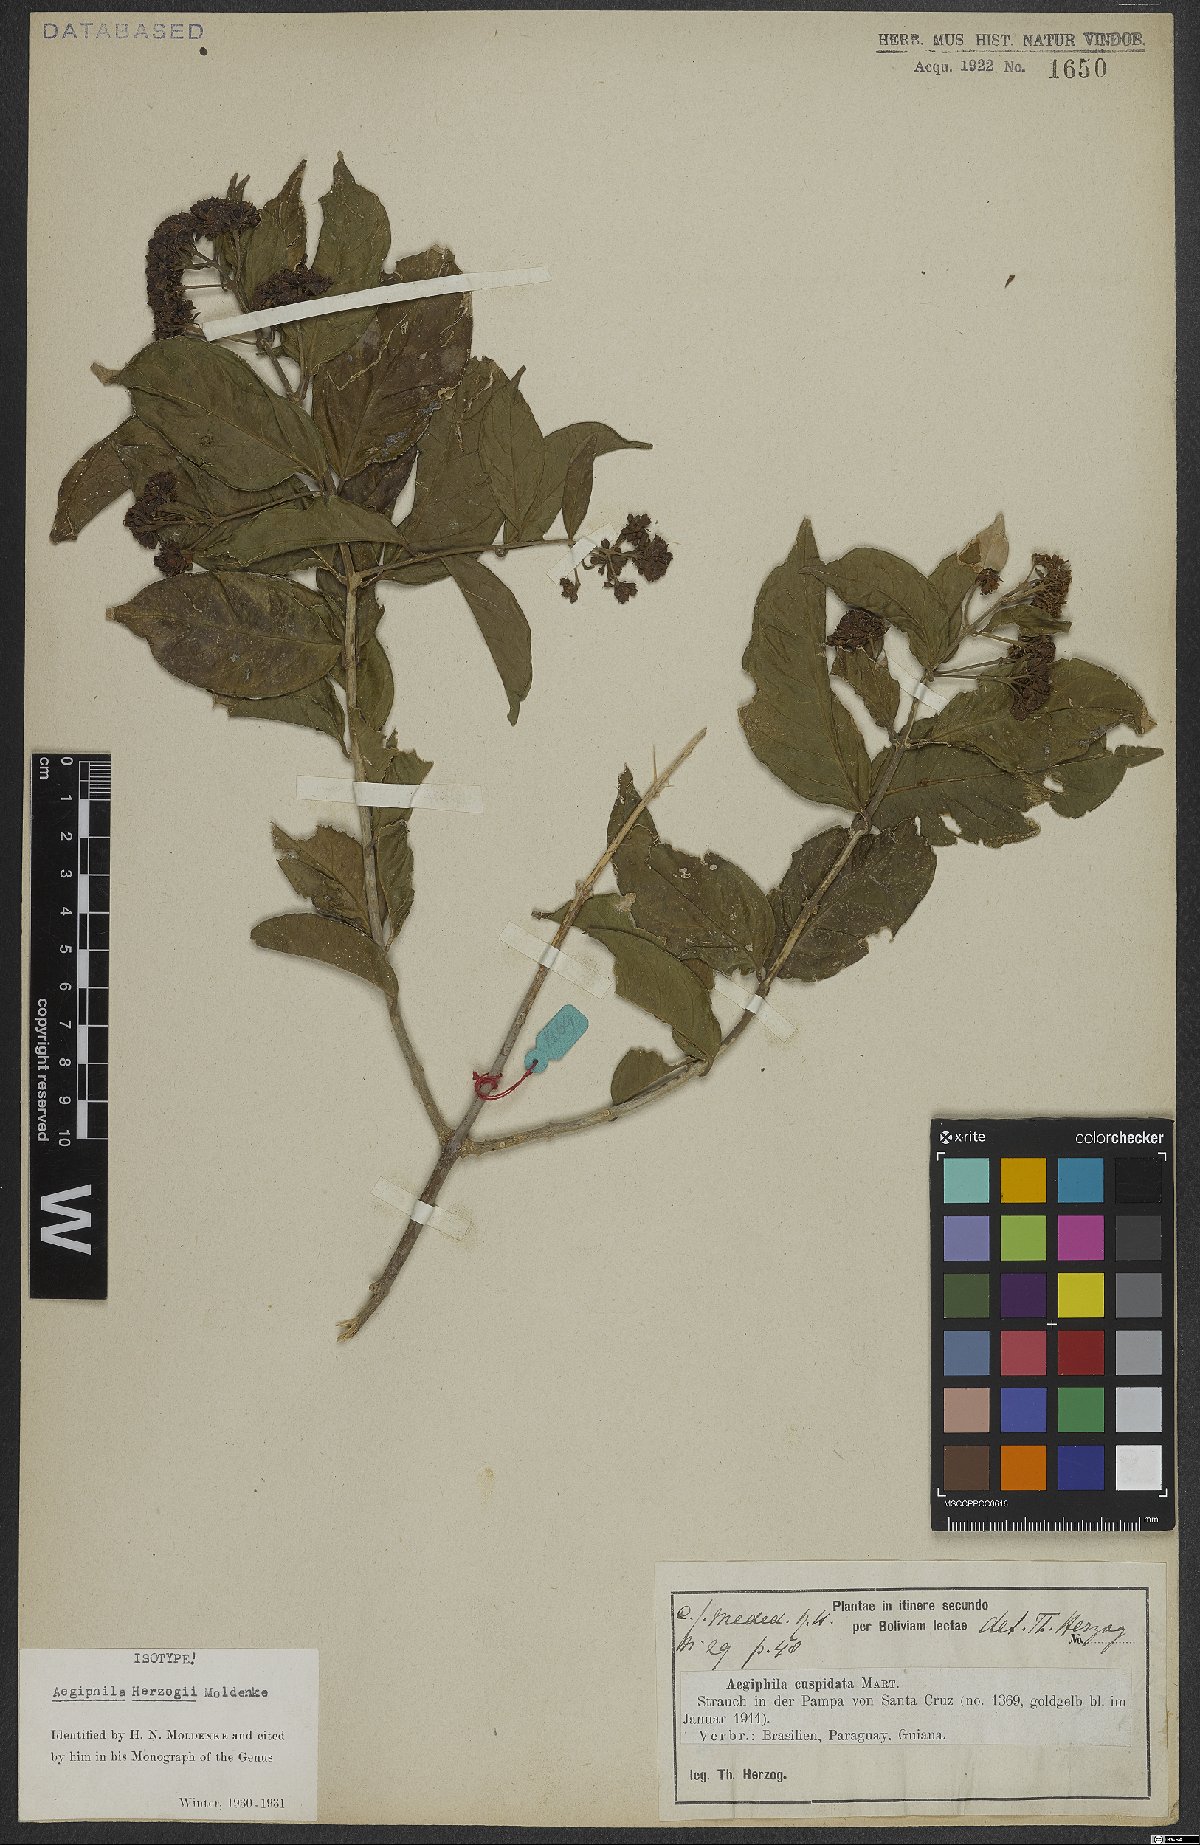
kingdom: Plantae
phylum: Tracheophyta
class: Magnoliopsida
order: Lamiales
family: Lamiaceae
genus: Aegiphila
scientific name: Aegiphila herzogii
